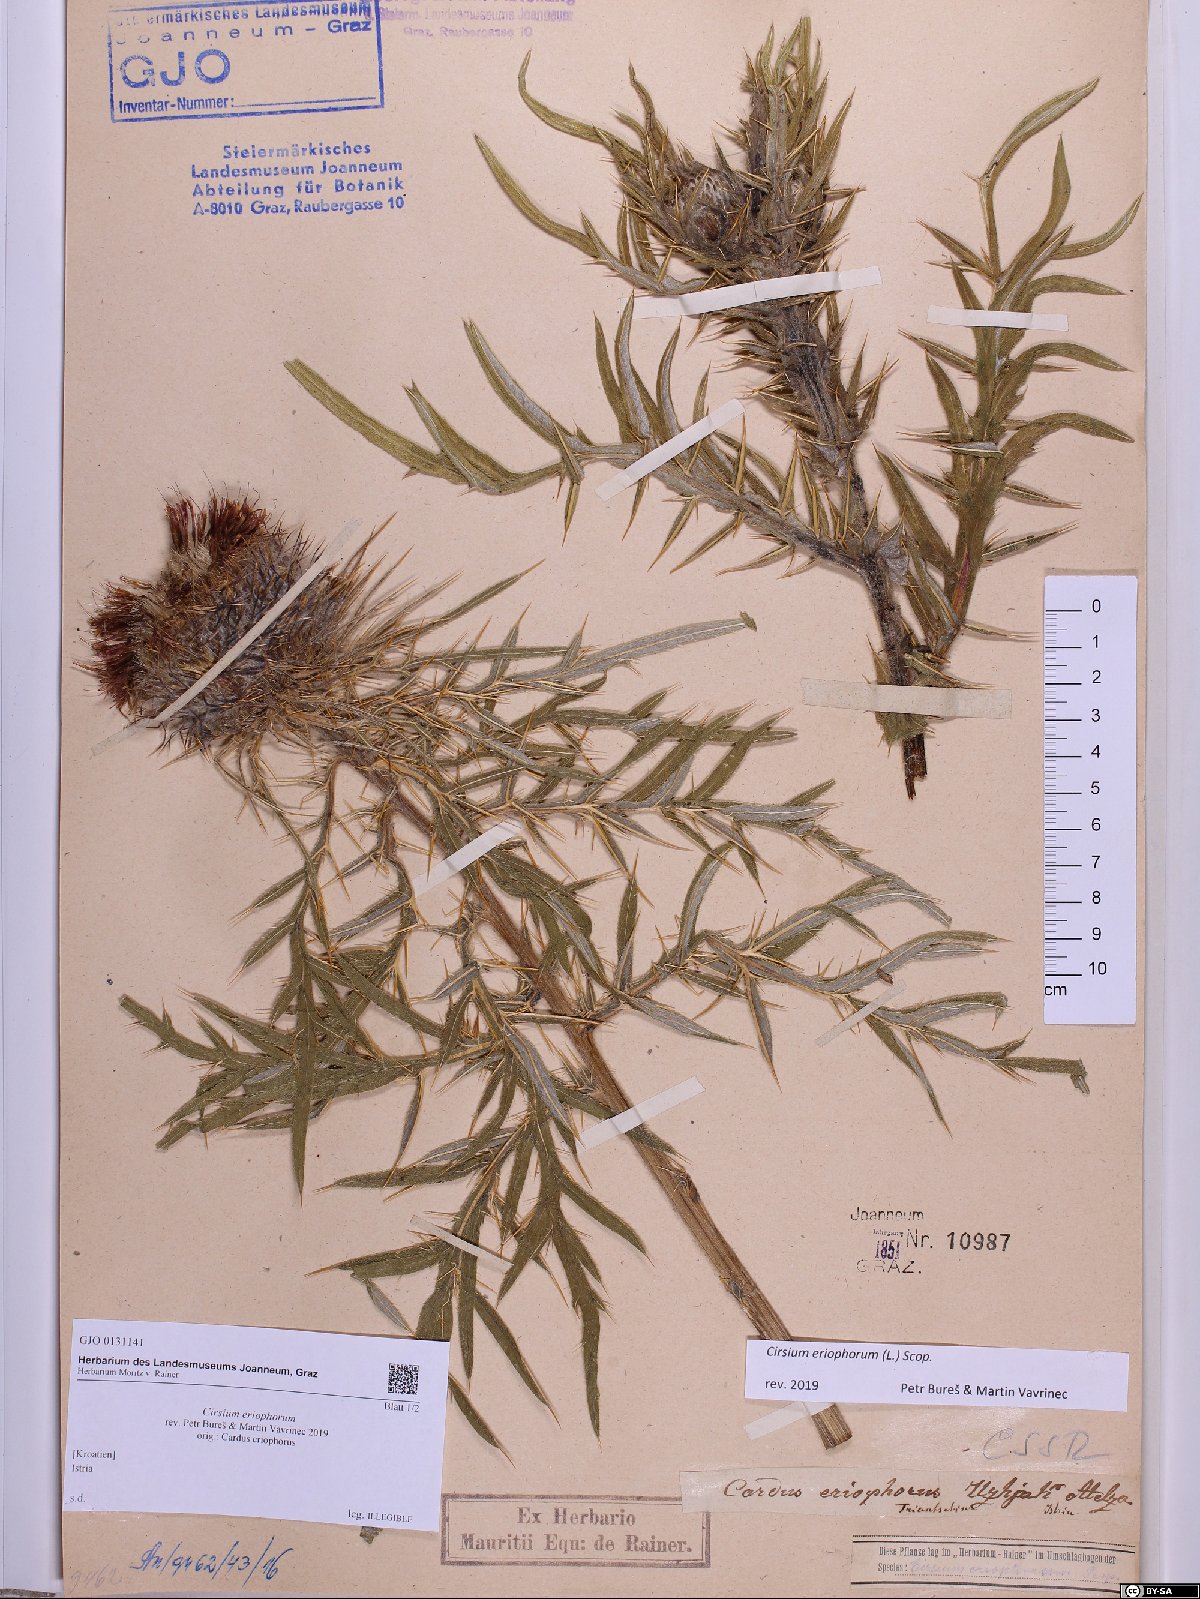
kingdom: Plantae
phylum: Tracheophyta
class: Magnoliopsida
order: Asterales
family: Asteraceae
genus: Lophiolepis
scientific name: Lophiolepis eriophora
